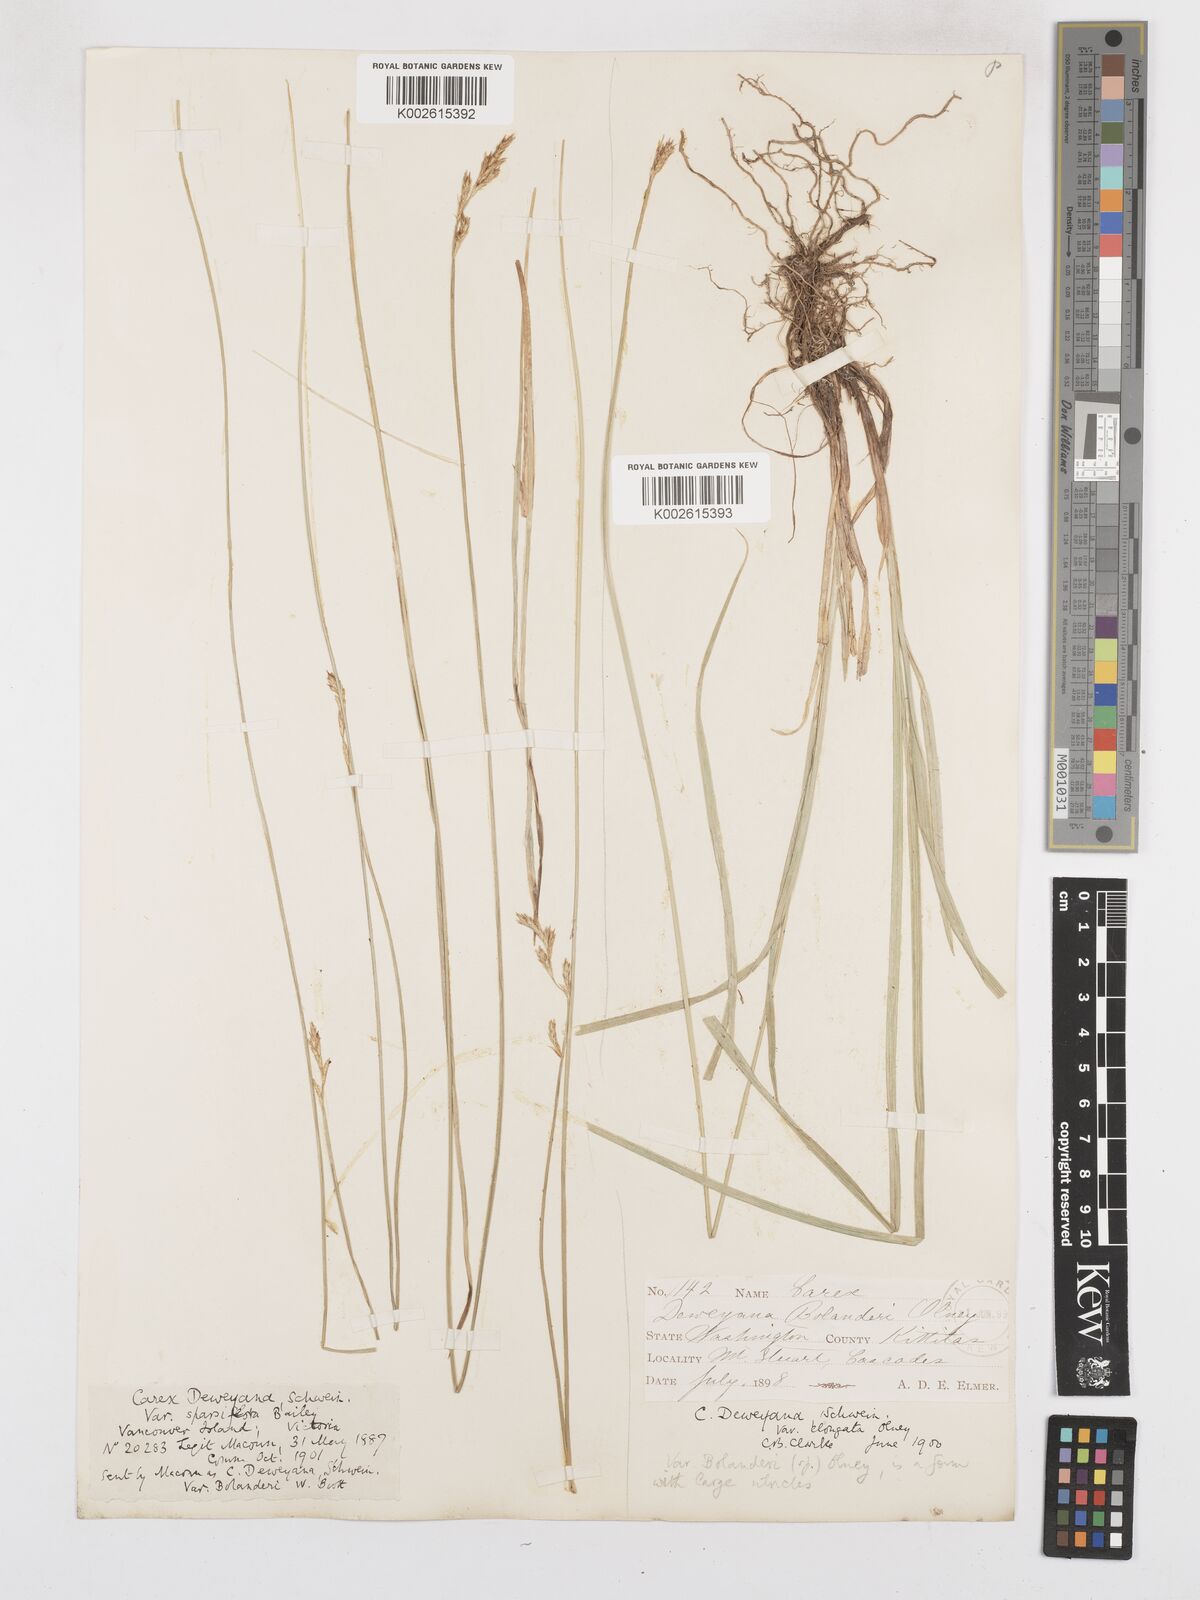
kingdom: Plantae
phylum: Tracheophyta
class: Liliopsida
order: Poales
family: Cyperaceae
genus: Carex
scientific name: Carex bolanderi
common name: Bolander's sedge
